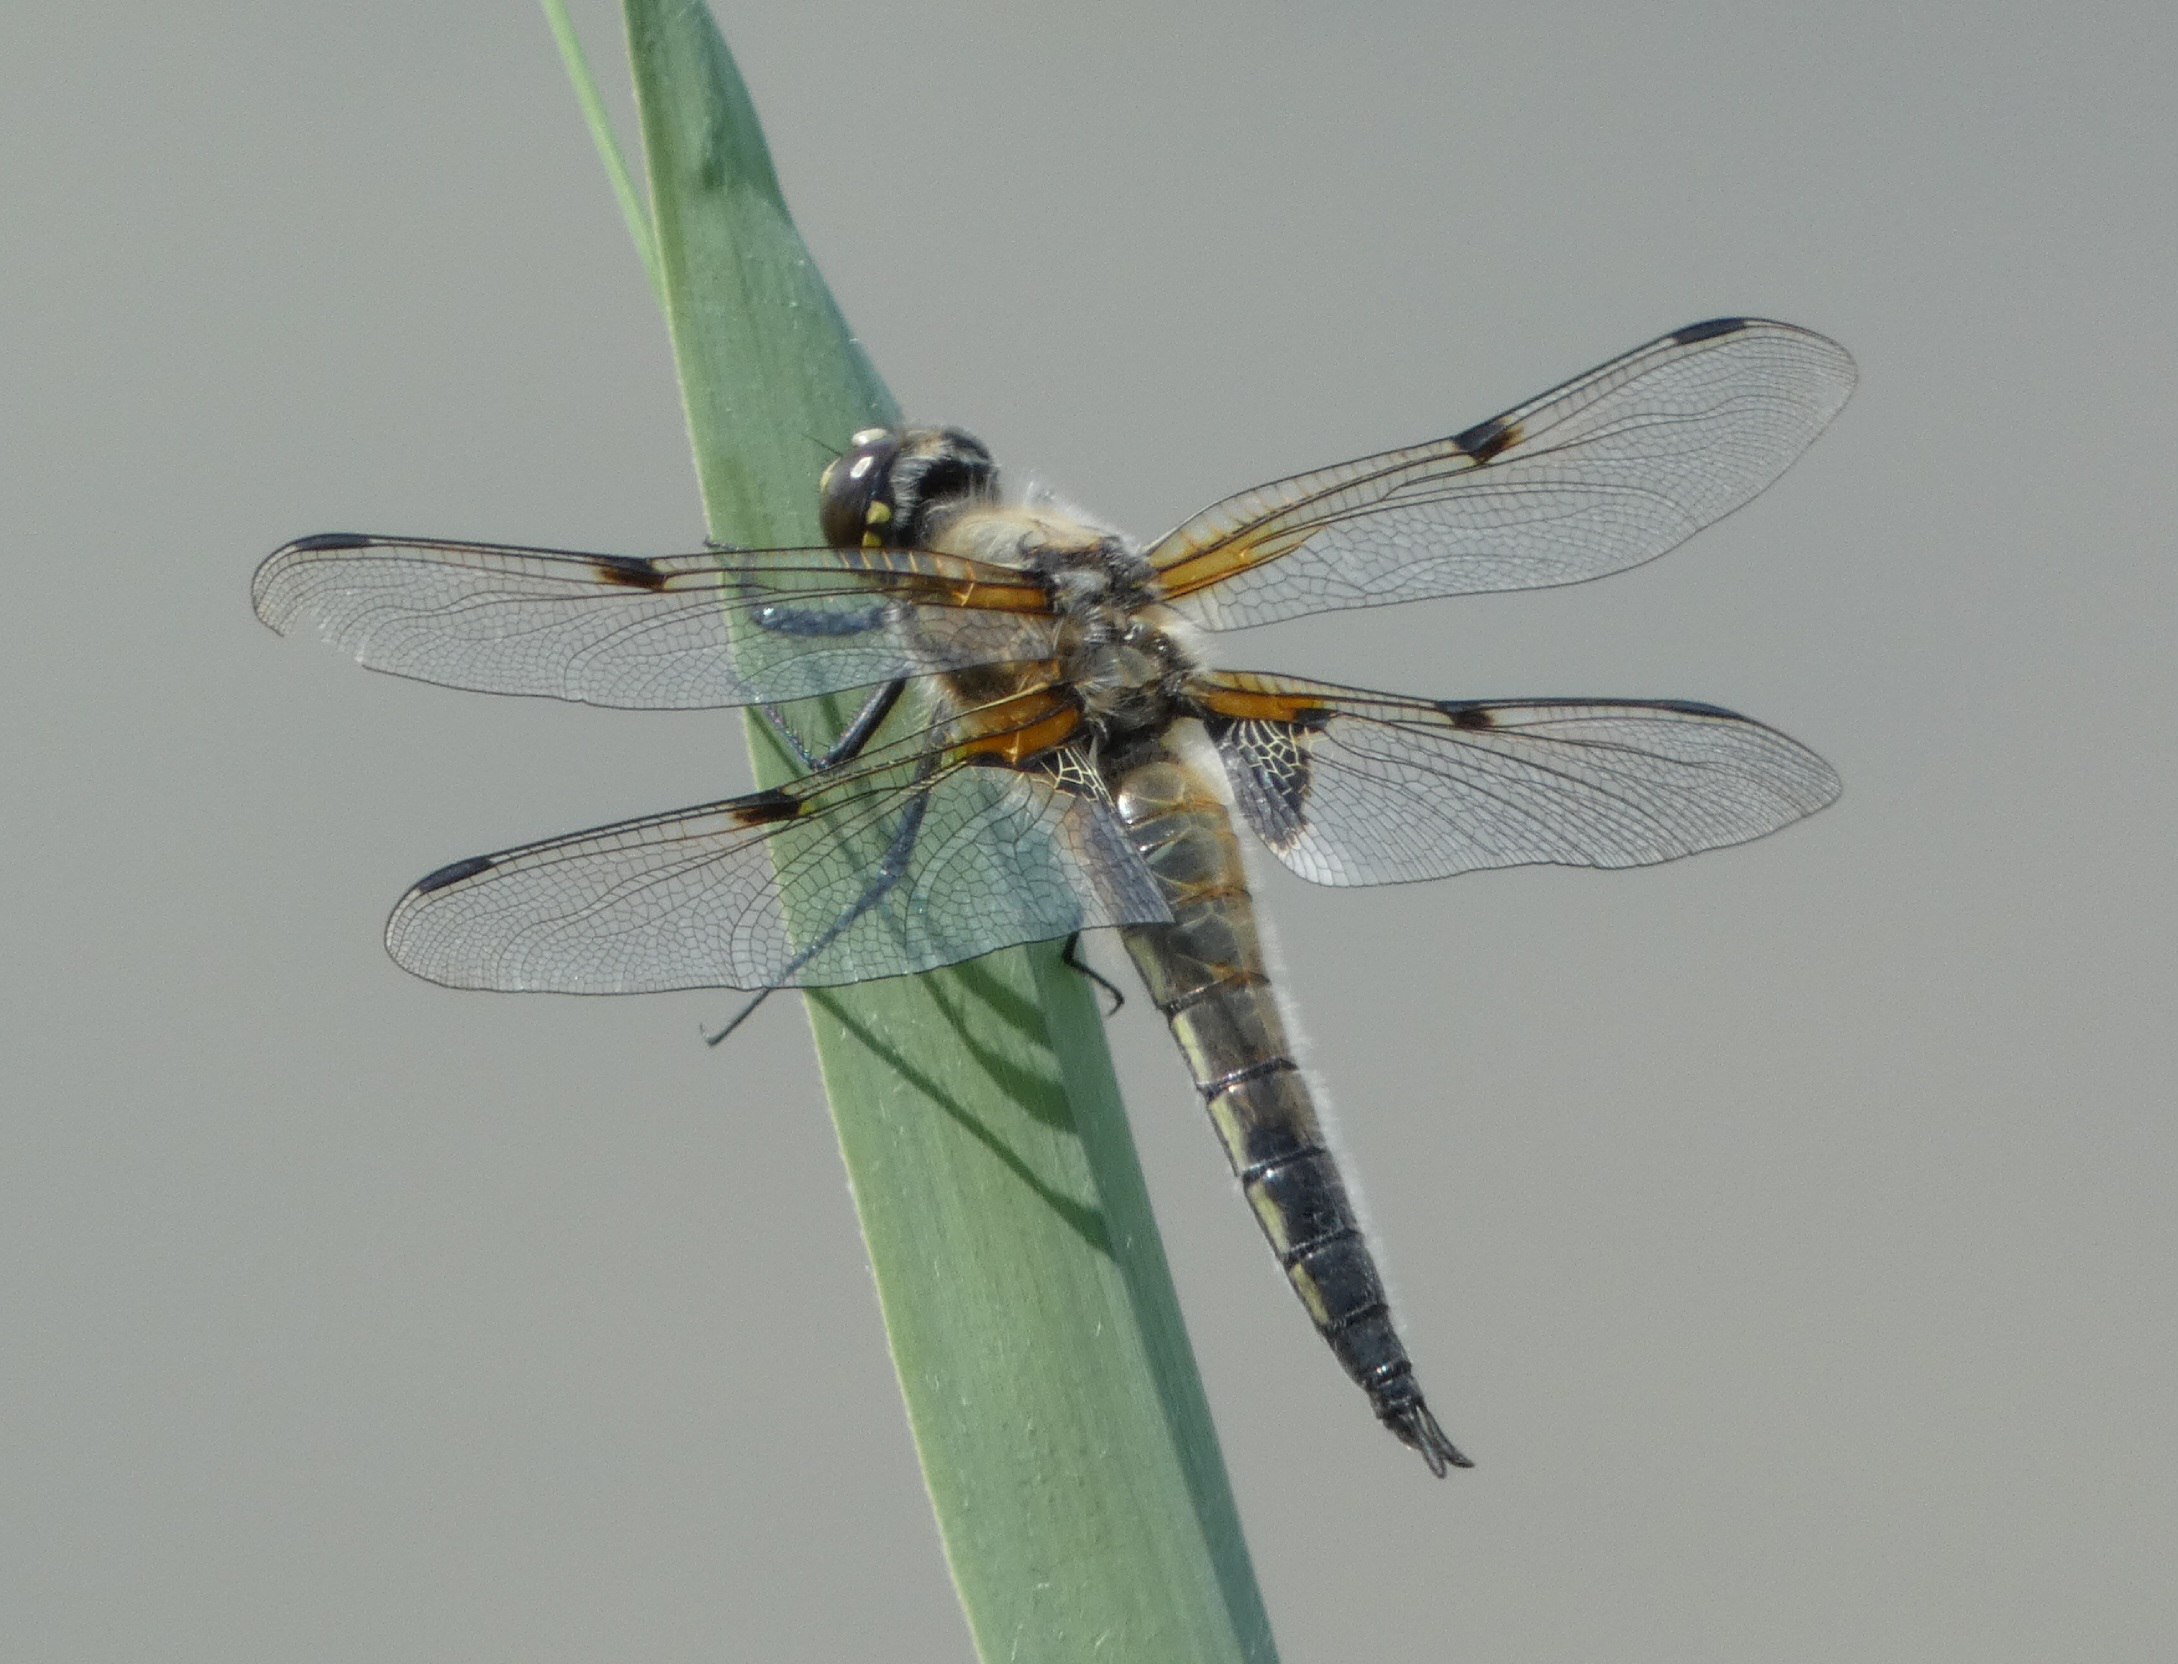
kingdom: Animalia
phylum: Arthropoda
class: Insecta
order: Odonata
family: Libellulidae
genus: Libellula
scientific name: Libellula quadrimaculata
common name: Fireplettet libel
